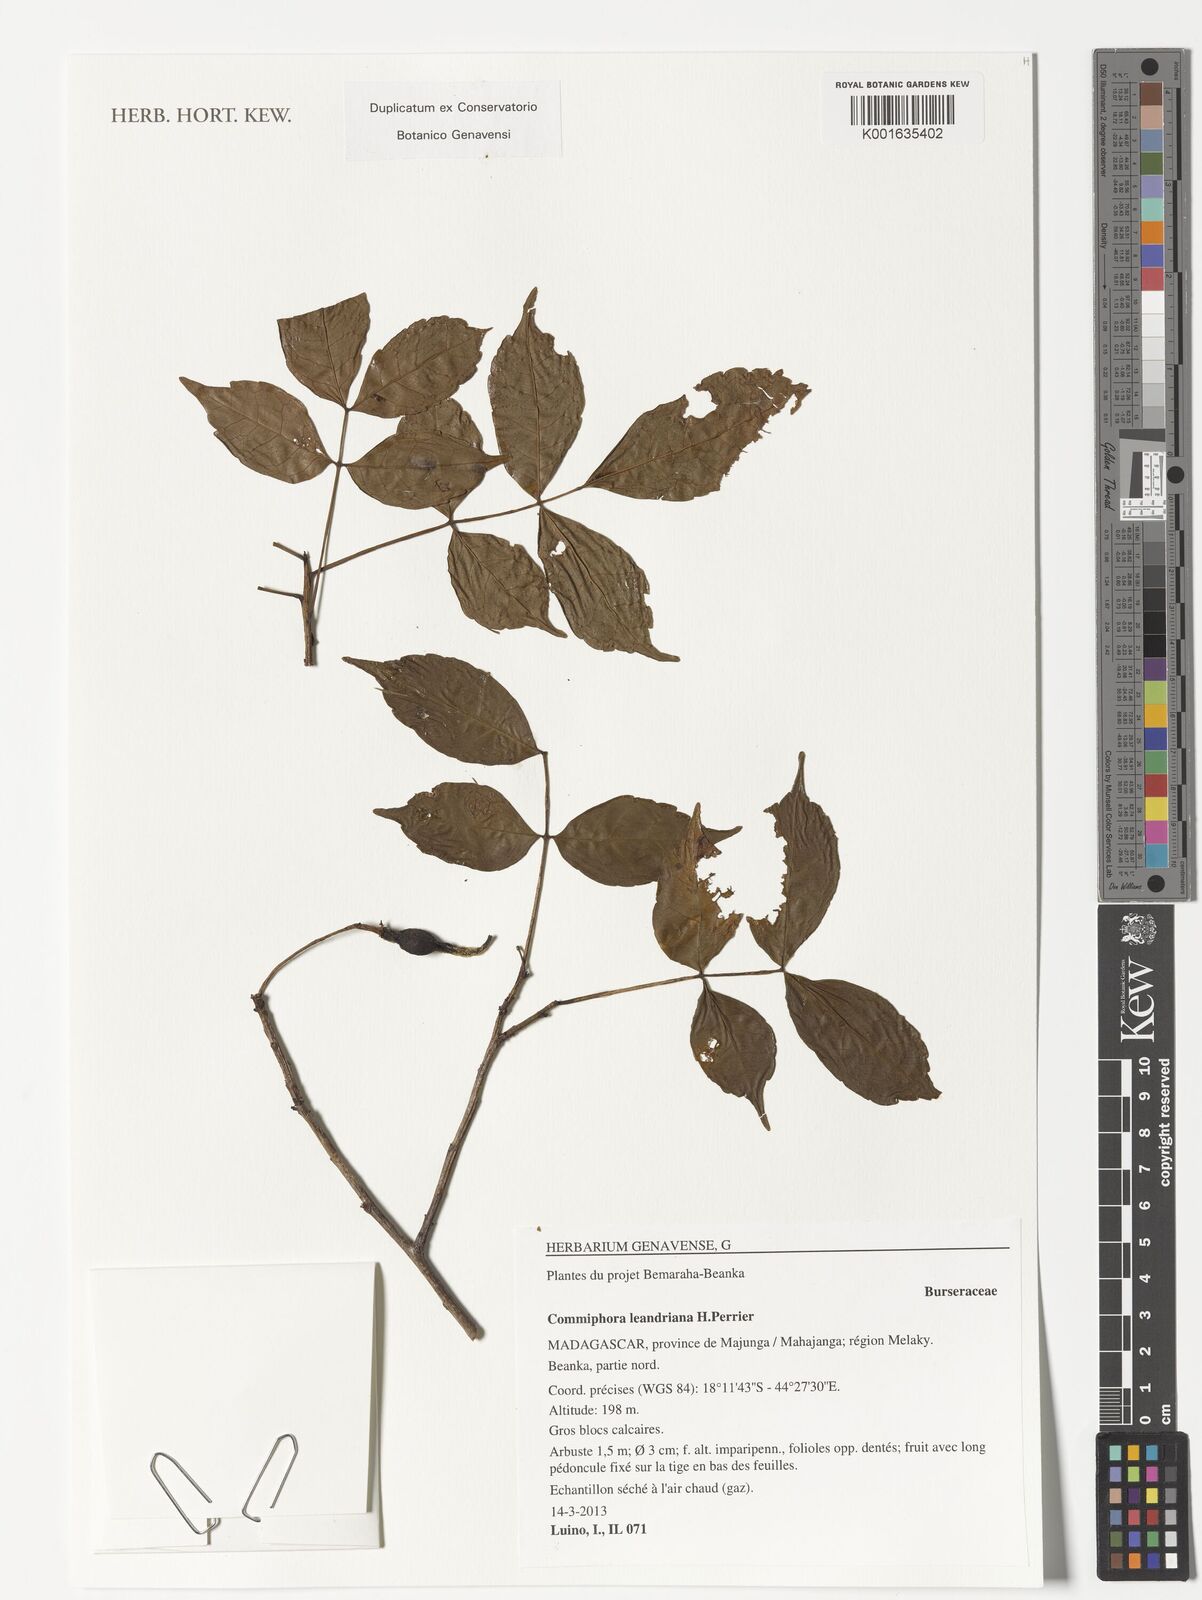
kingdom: Plantae
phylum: Tracheophyta
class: Magnoliopsida
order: Sapindales
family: Burseraceae
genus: Commiphora
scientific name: Commiphora leandriana
